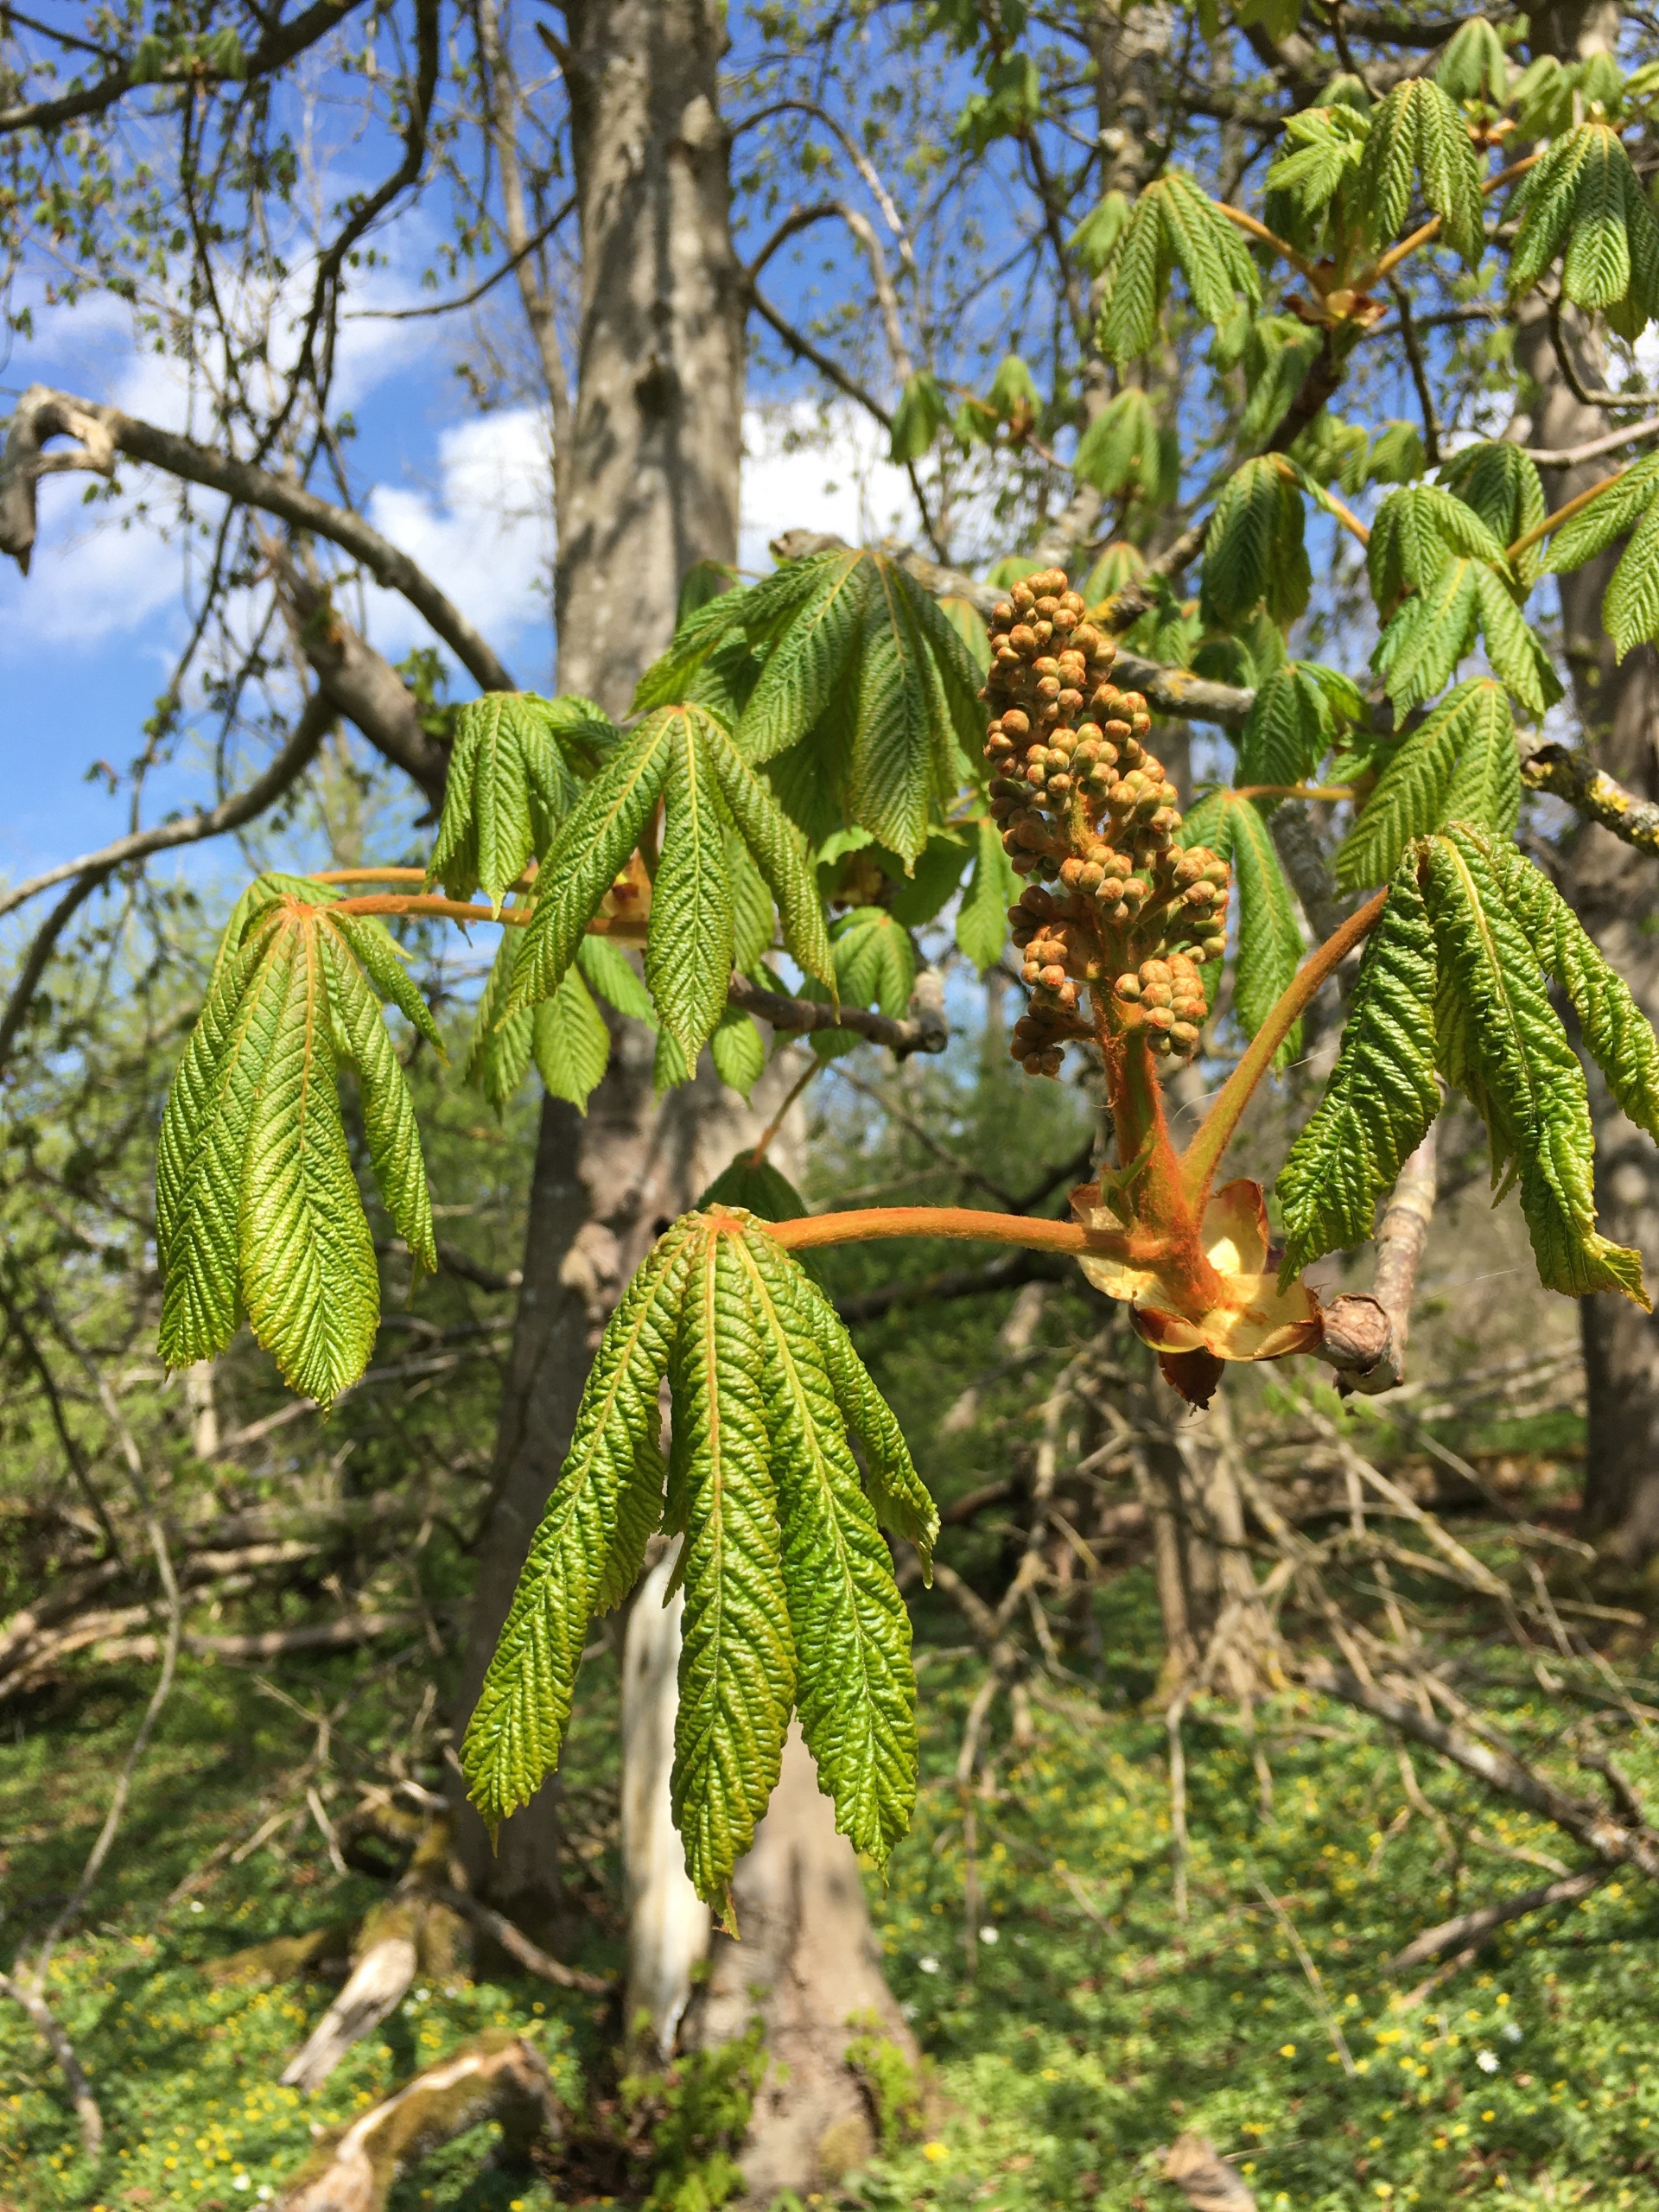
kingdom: Plantae
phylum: Tracheophyta
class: Magnoliopsida
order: Sapindales
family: Sapindaceae
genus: Aesculus
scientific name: Aesculus hippocastanum
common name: Hestekastanie
